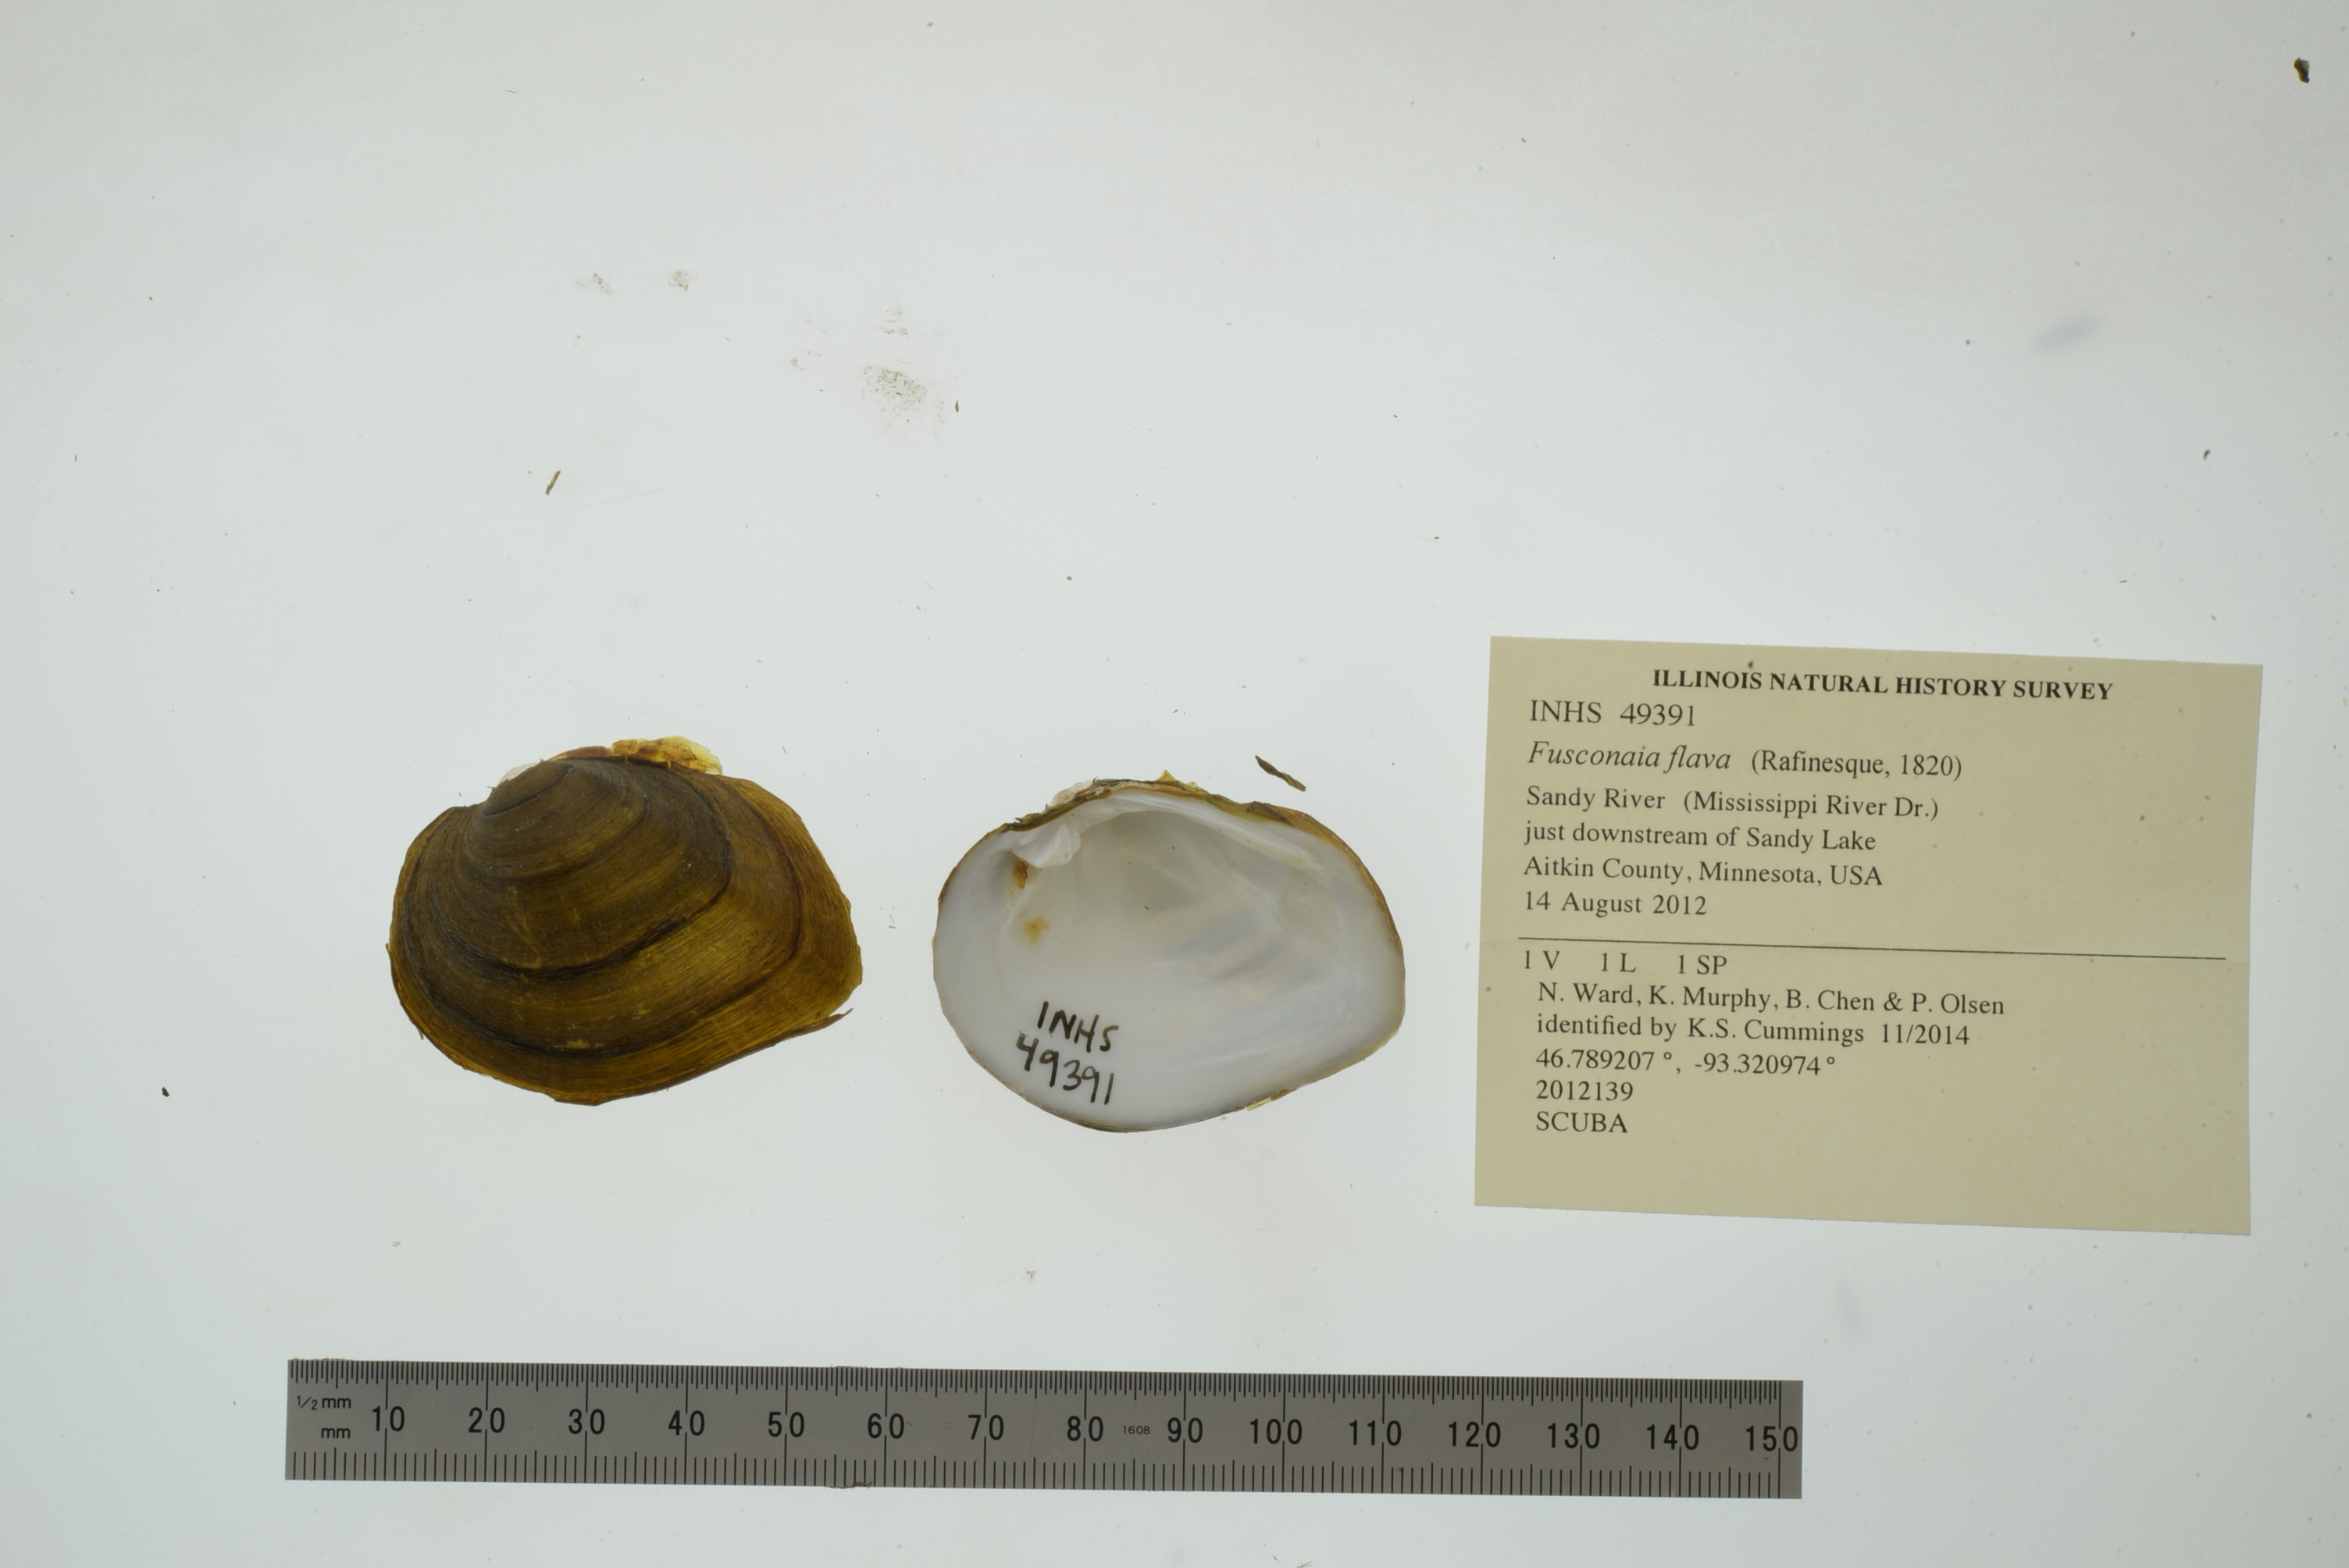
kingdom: Animalia
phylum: Mollusca
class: Bivalvia
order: Unionida
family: Unionidae
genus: Fusconaia
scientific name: Fusconaia flava
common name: Wabash pigtoe
